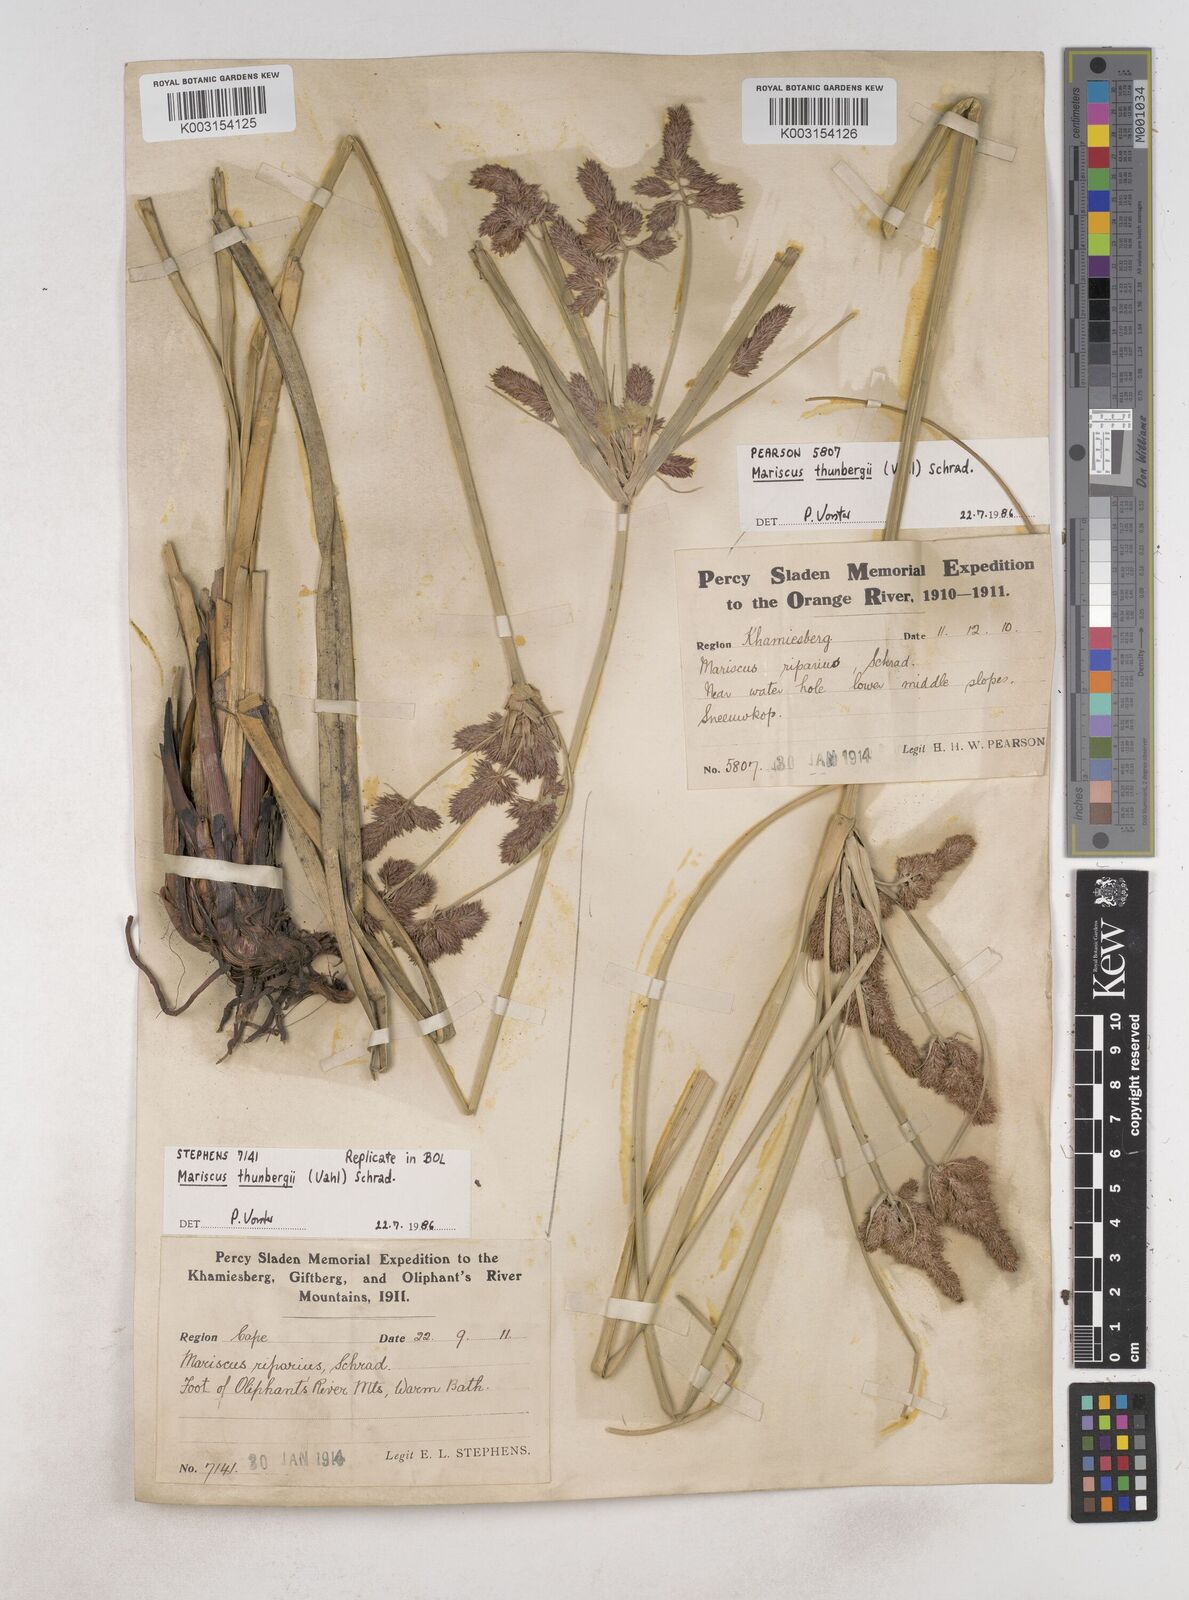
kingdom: Plantae
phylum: Tracheophyta
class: Liliopsida
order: Poales
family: Cyperaceae
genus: Cyperus
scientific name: Cyperus thunbergii
